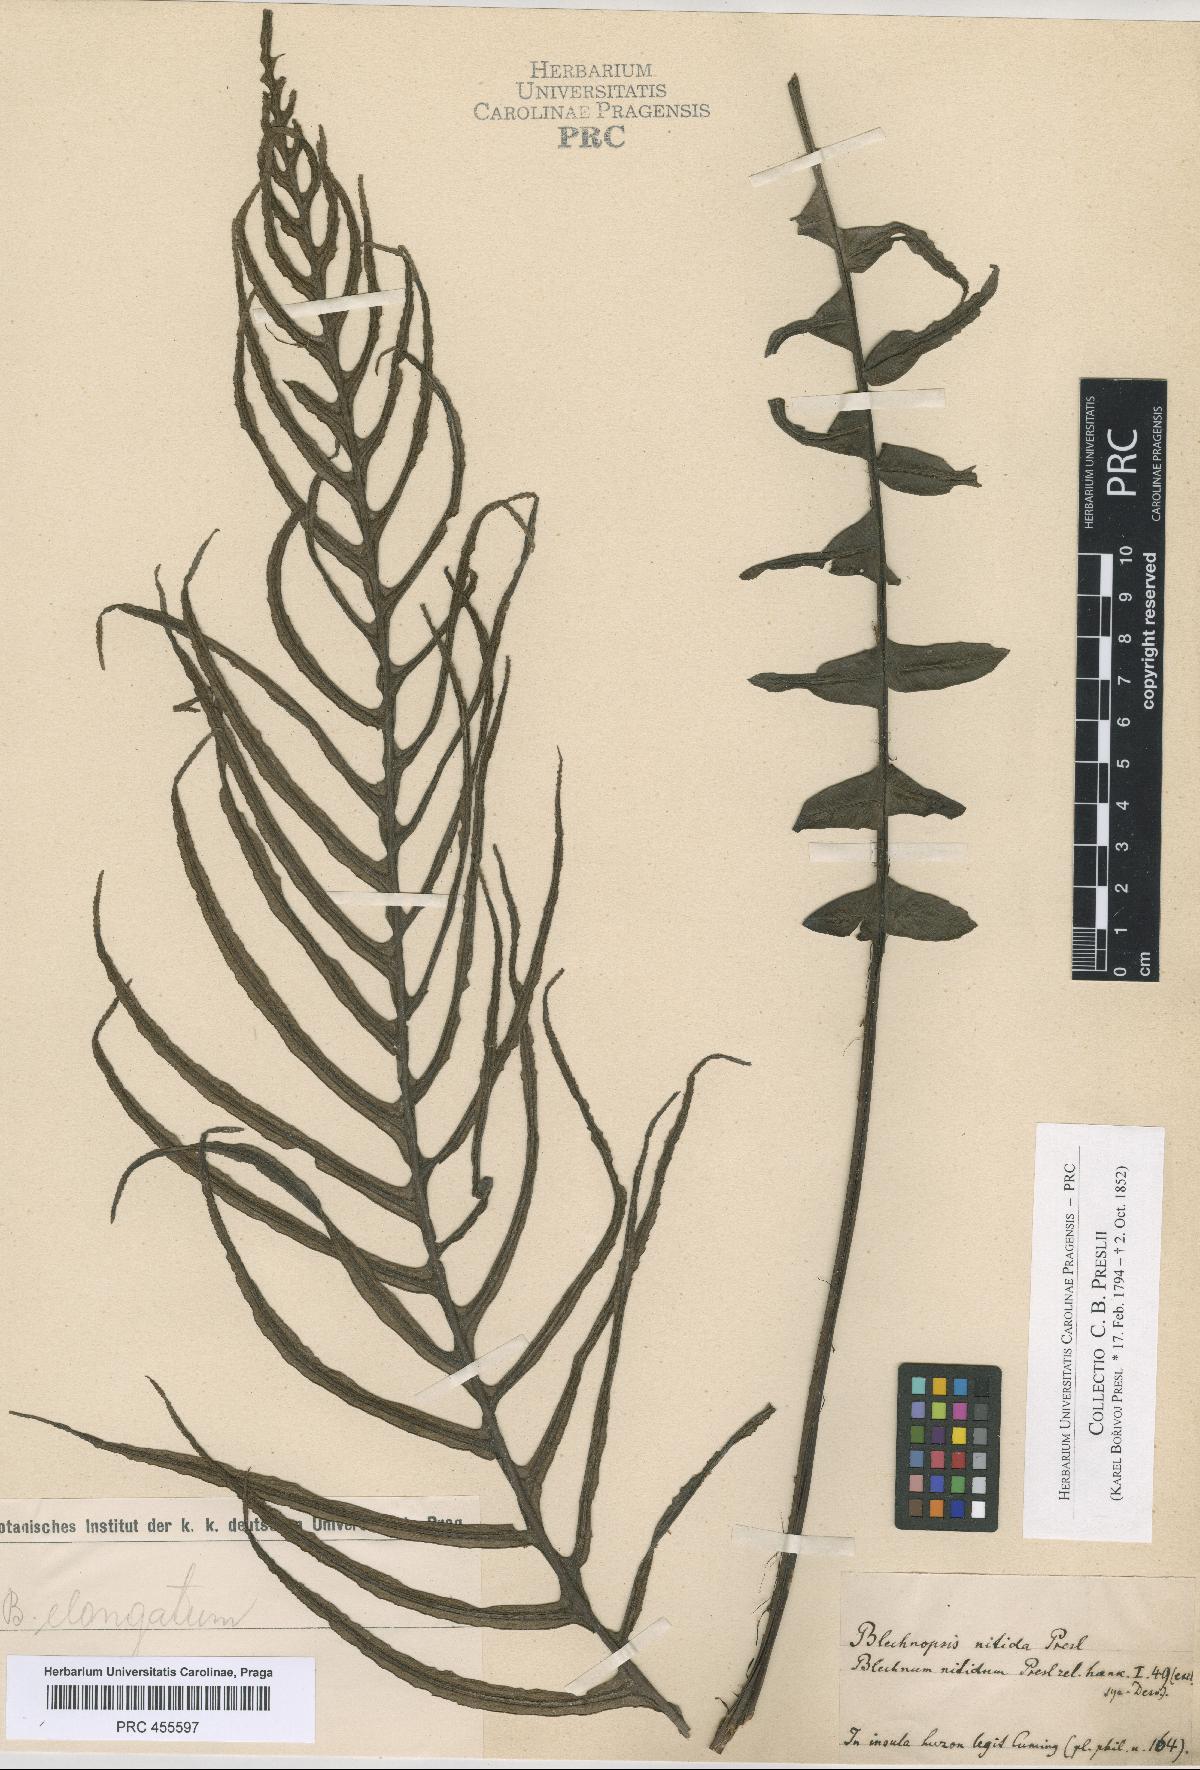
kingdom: Plantae
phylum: Tracheophyta
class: Polypodiopsida
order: Polypodiales
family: Blechnaceae
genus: Blechnum
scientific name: Blechnum
